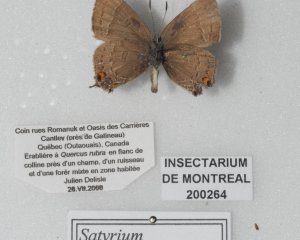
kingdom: Animalia
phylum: Arthropoda
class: Insecta
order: Lepidoptera
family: Lycaenidae
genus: Satyrium
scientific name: Satyrium calanus
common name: Banded Hairstreak
